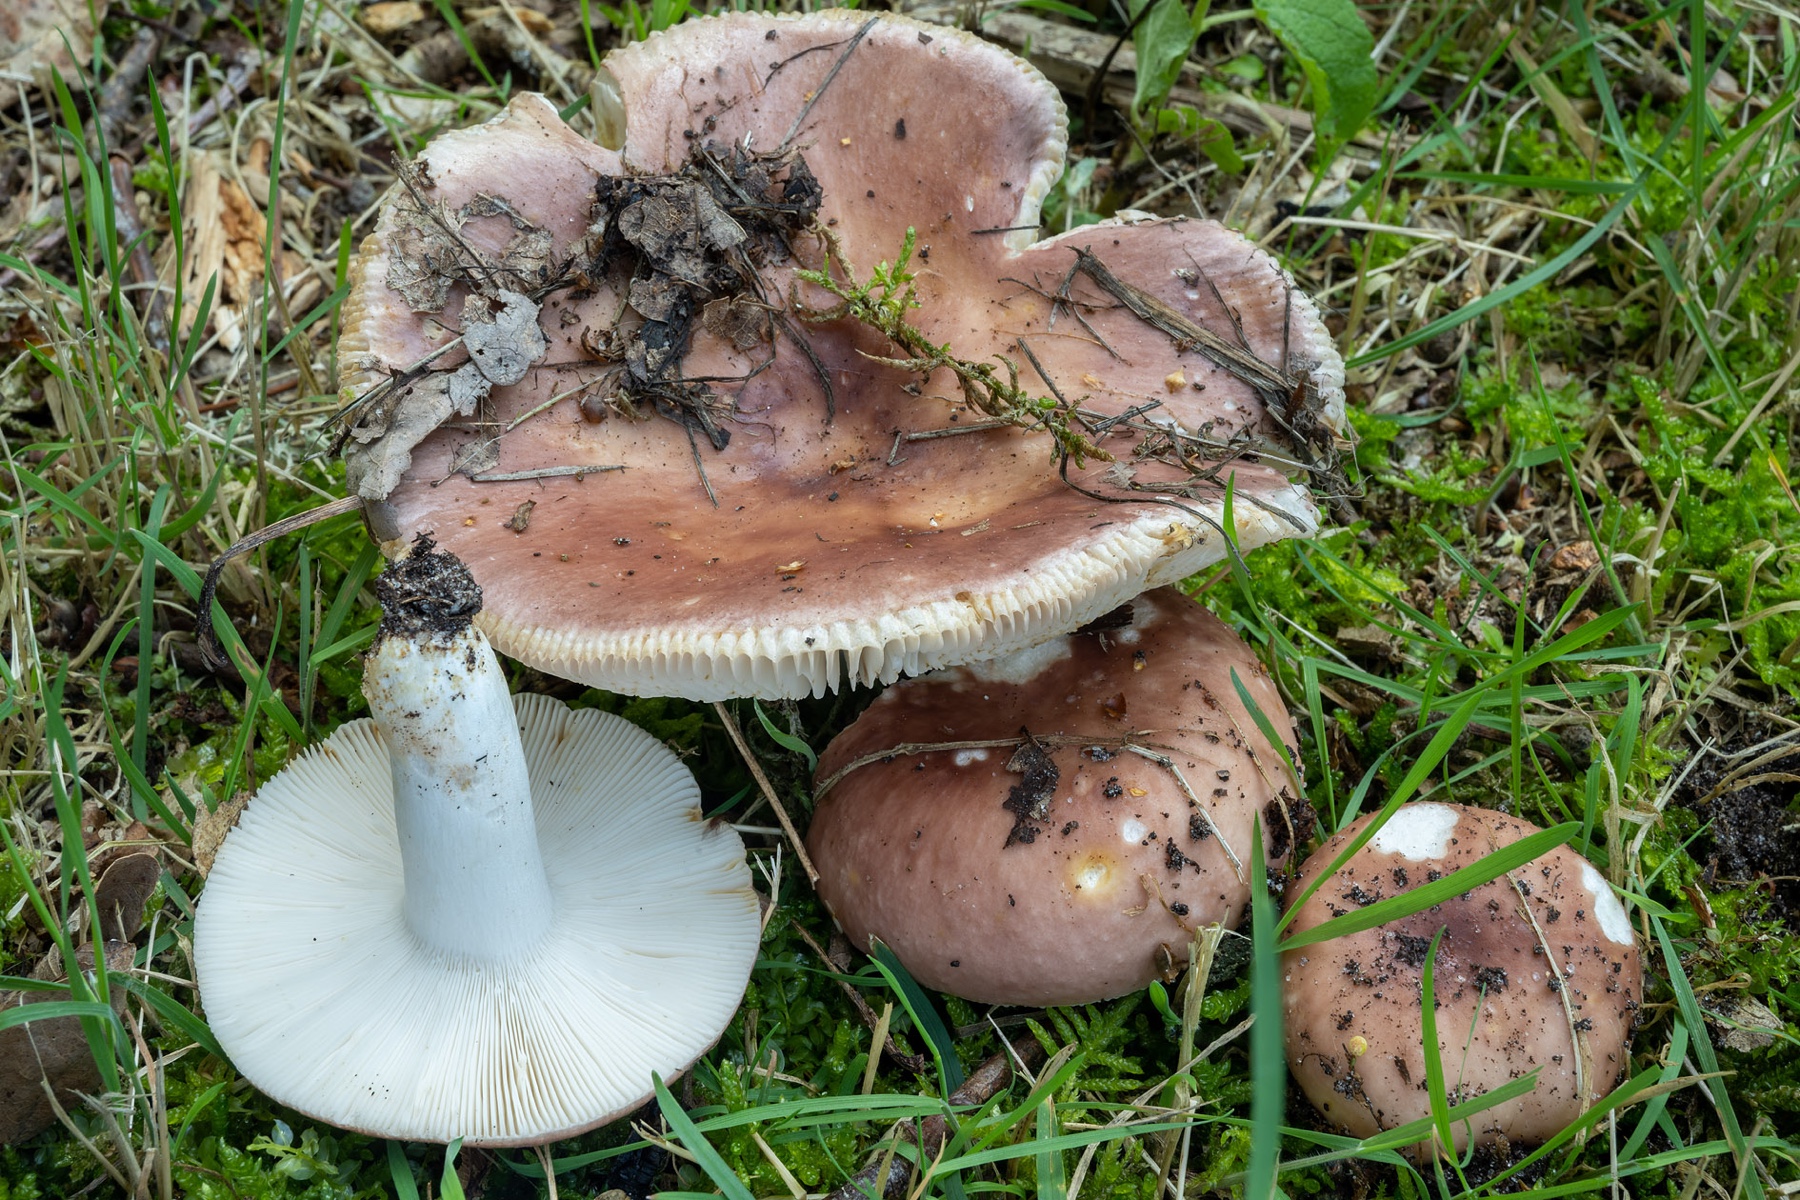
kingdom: Fungi
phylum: Basidiomycota
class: Agaricomycetes
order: Russulales
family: Russulaceae
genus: Russula
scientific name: Russula vesca
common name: spiselig skørhat
